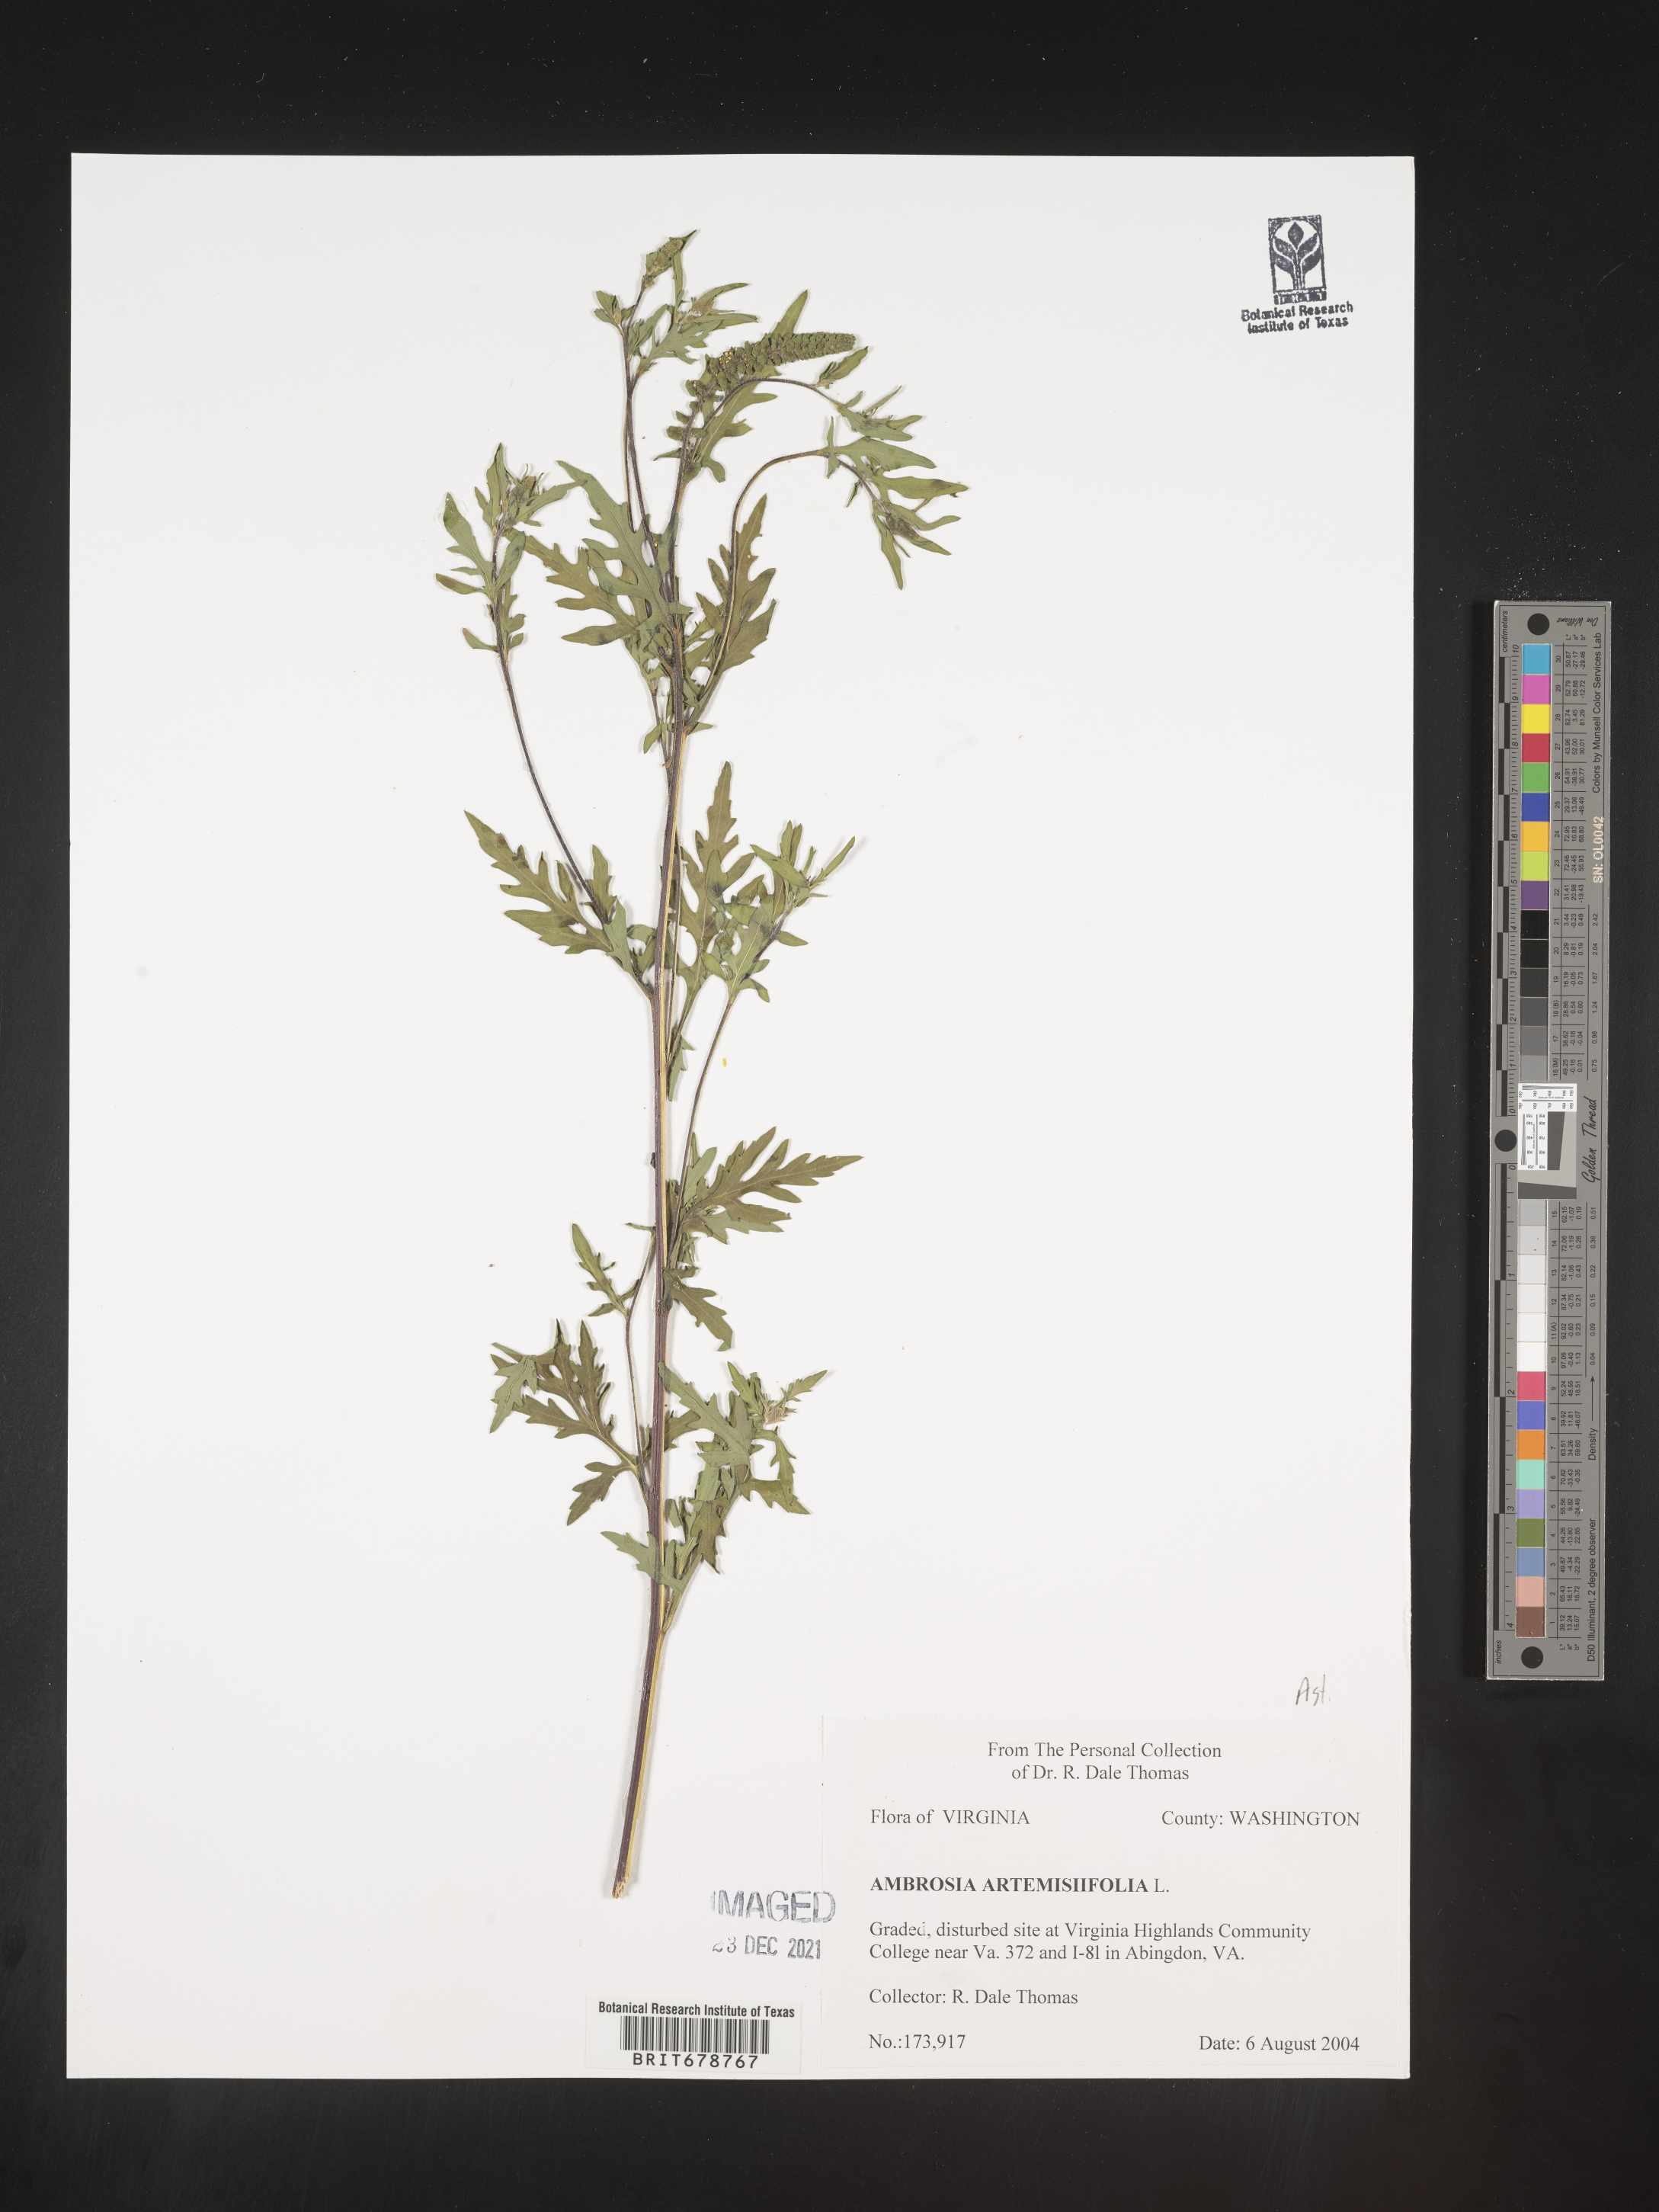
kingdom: Plantae
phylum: Tracheophyta
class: Magnoliopsida
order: Asterales
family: Asteraceae
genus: Ambrosia
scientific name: Ambrosia artemisiifolia
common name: Annual ragweed
